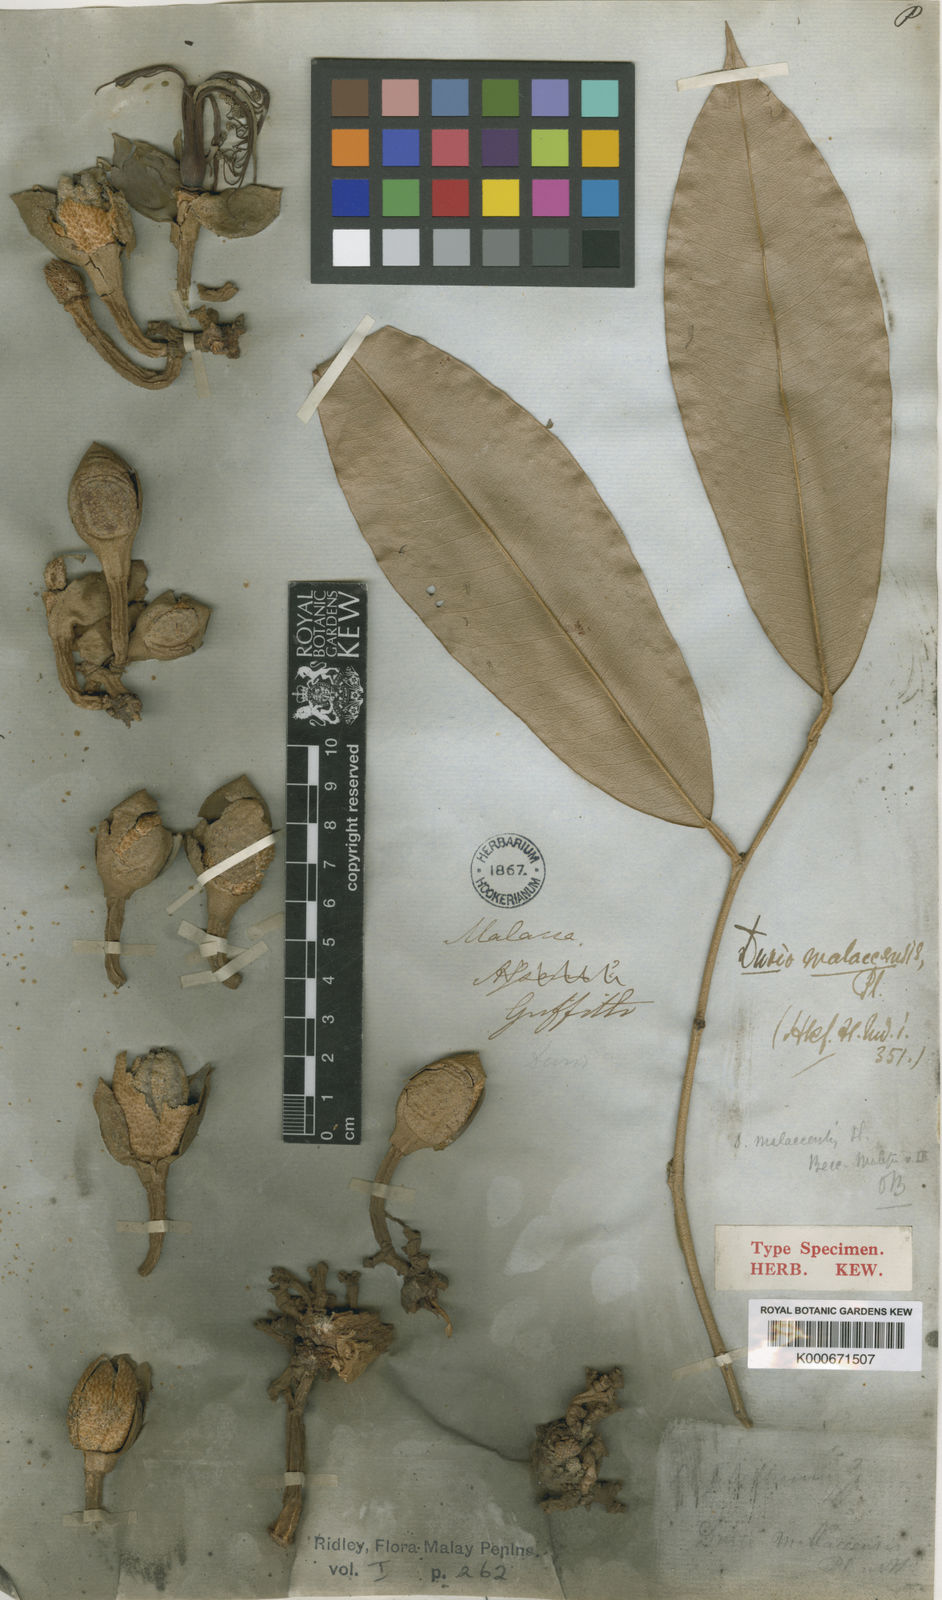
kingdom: Plantae
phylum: Tracheophyta
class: Magnoliopsida
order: Malvales
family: Malvaceae
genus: Durio
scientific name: Durio malaccensis
